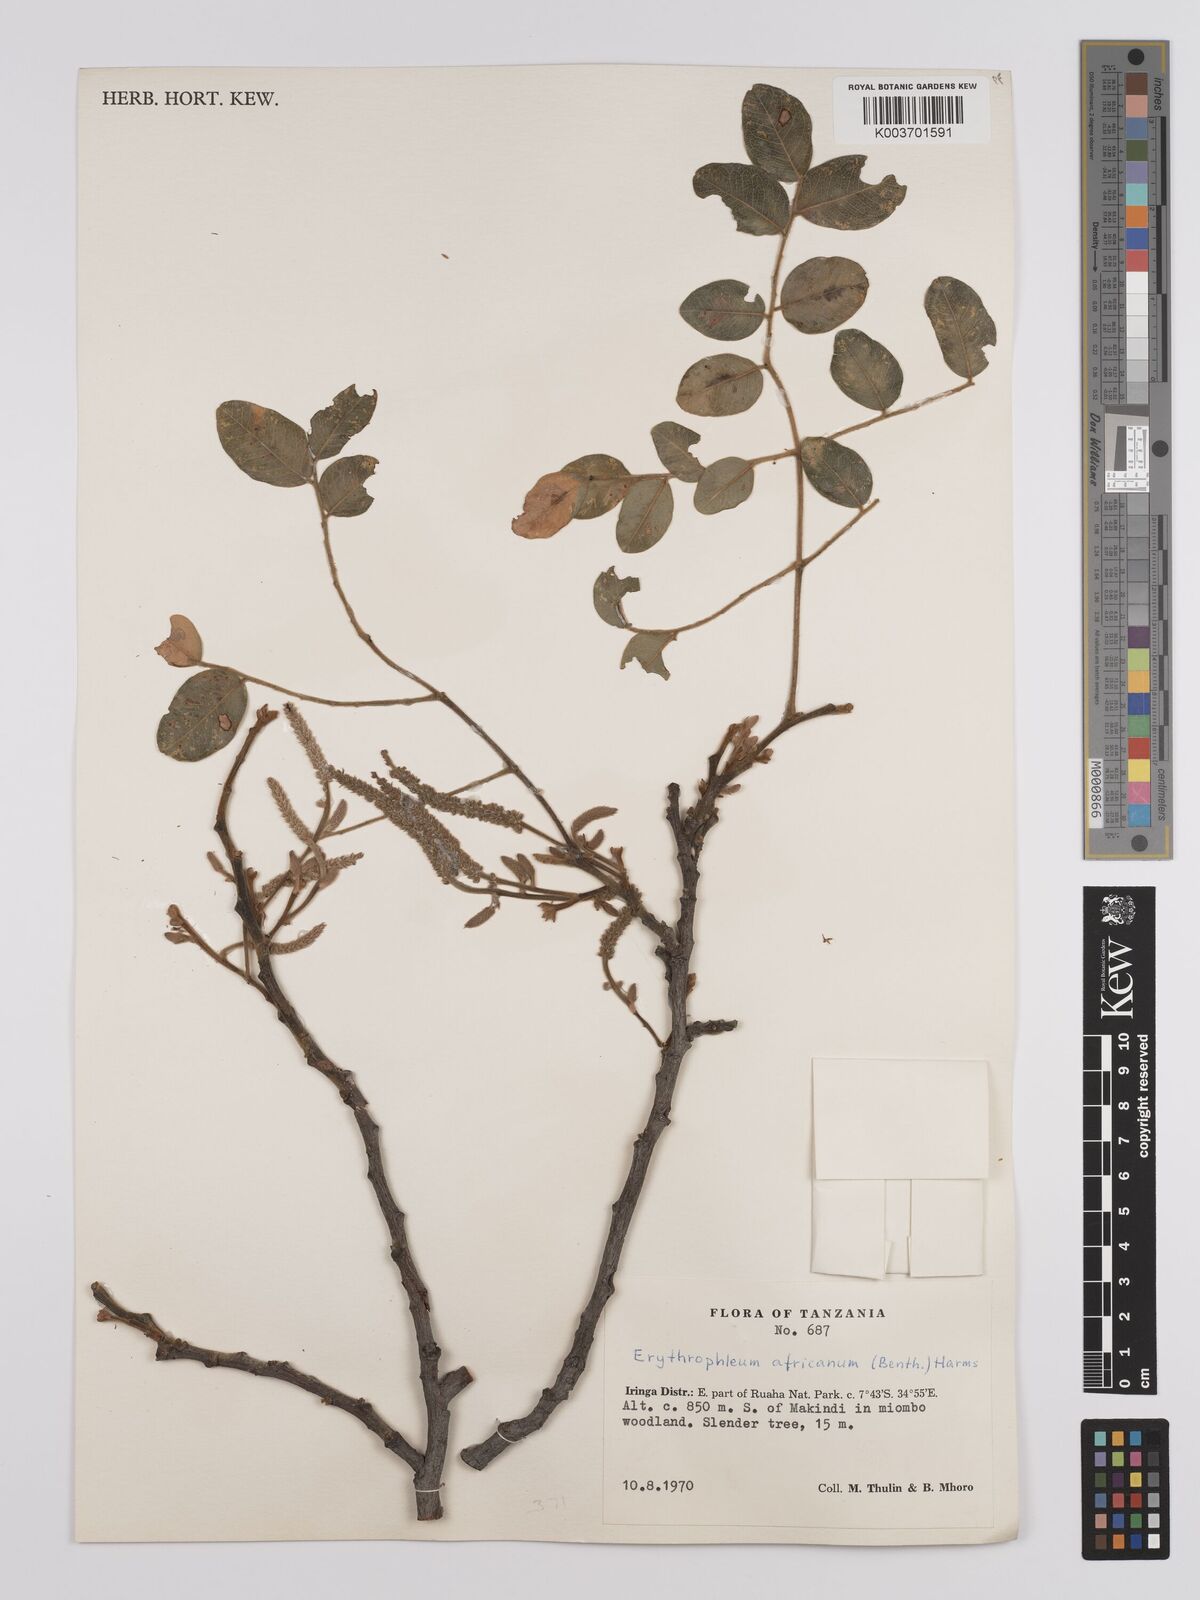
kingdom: Plantae
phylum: Tracheophyta
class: Magnoliopsida
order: Fabales
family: Fabaceae
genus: Erythrophleum
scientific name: Erythrophleum africanum
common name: African blackwood
